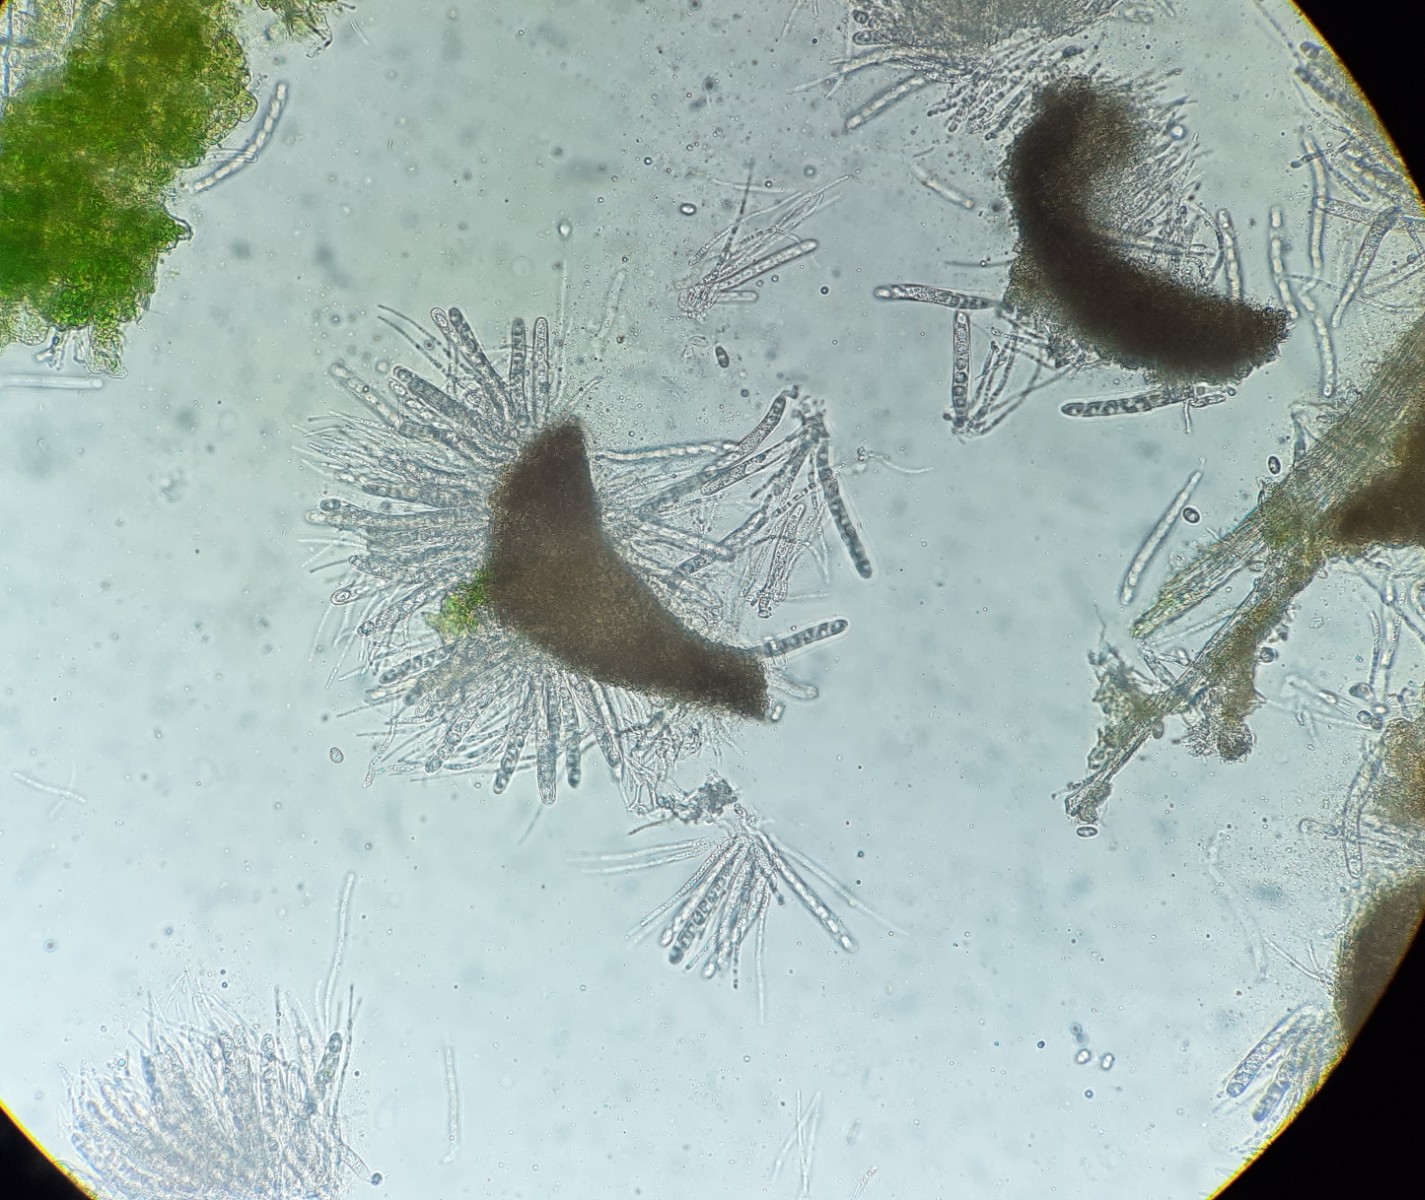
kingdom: Fungi
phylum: Ascomycota
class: Sordariomycetes
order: Phyllachorales
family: Phyllachoraceae
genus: Phyllachora
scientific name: Phyllachora graminis
